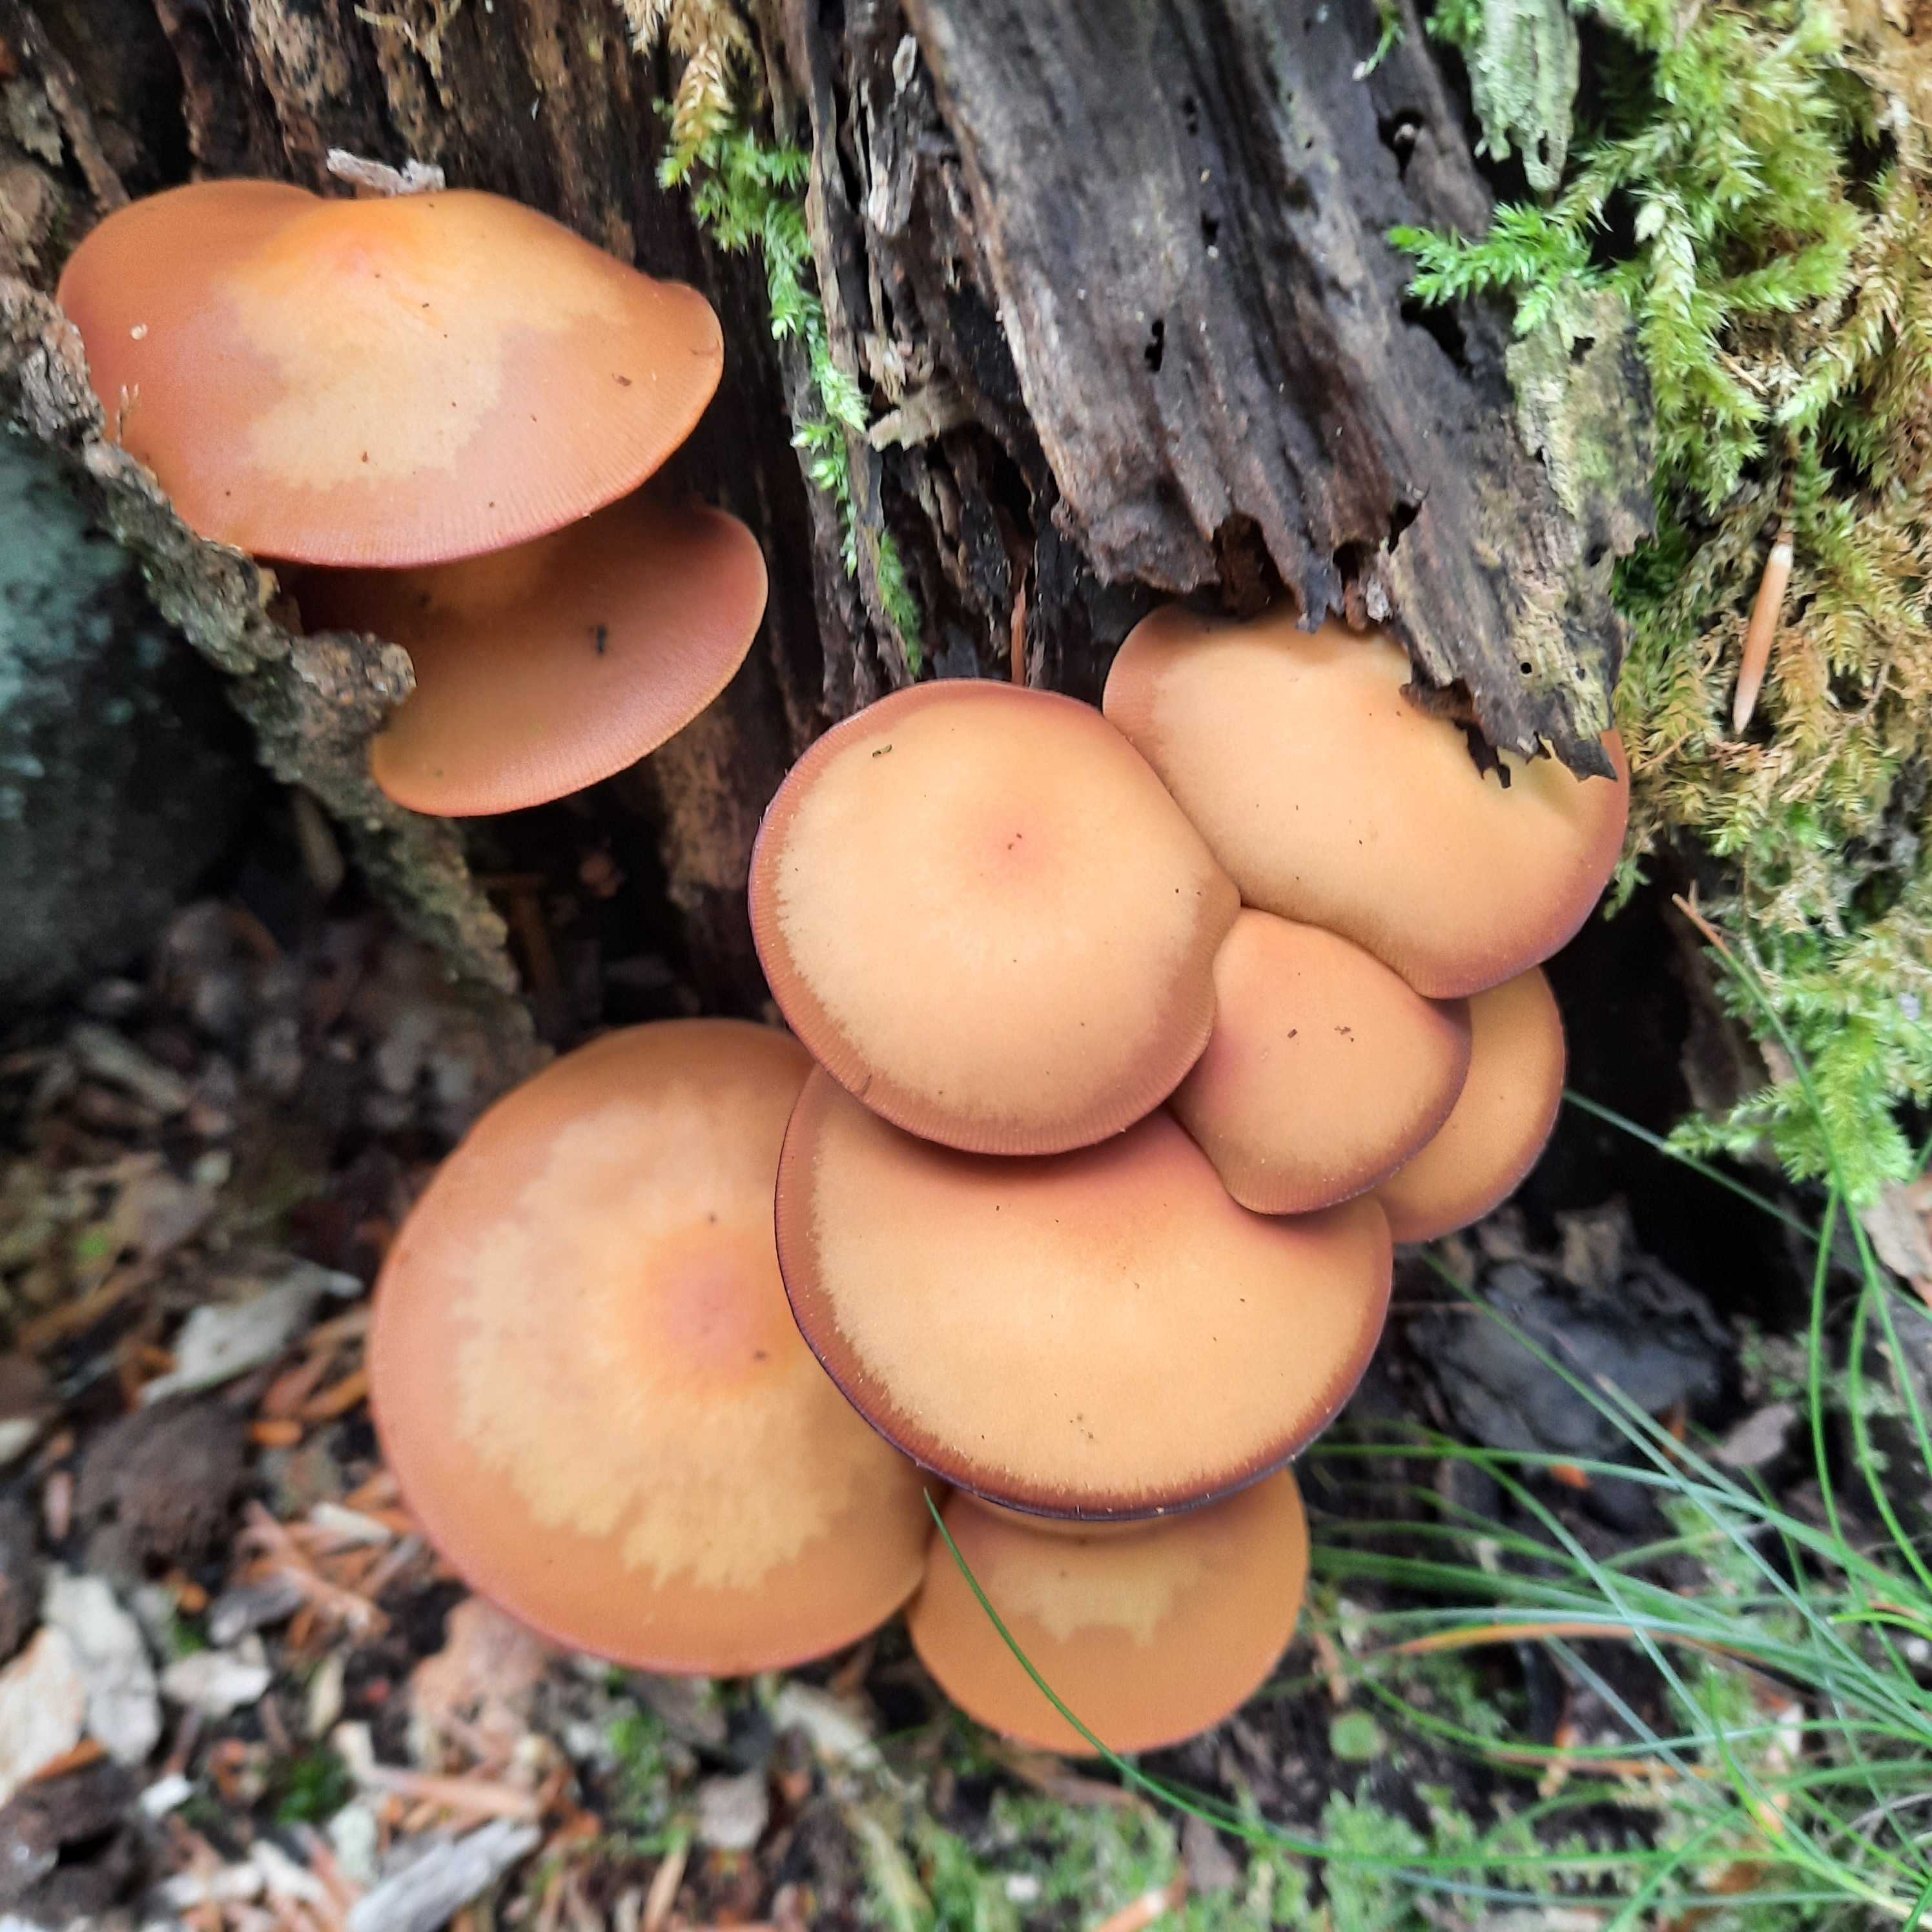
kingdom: Fungi
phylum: Basidiomycota
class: Agaricomycetes
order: Agaricales
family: Strophariaceae
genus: Kuehneromyces
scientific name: Kuehneromyces mutabilis
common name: foranderlig skælhat
